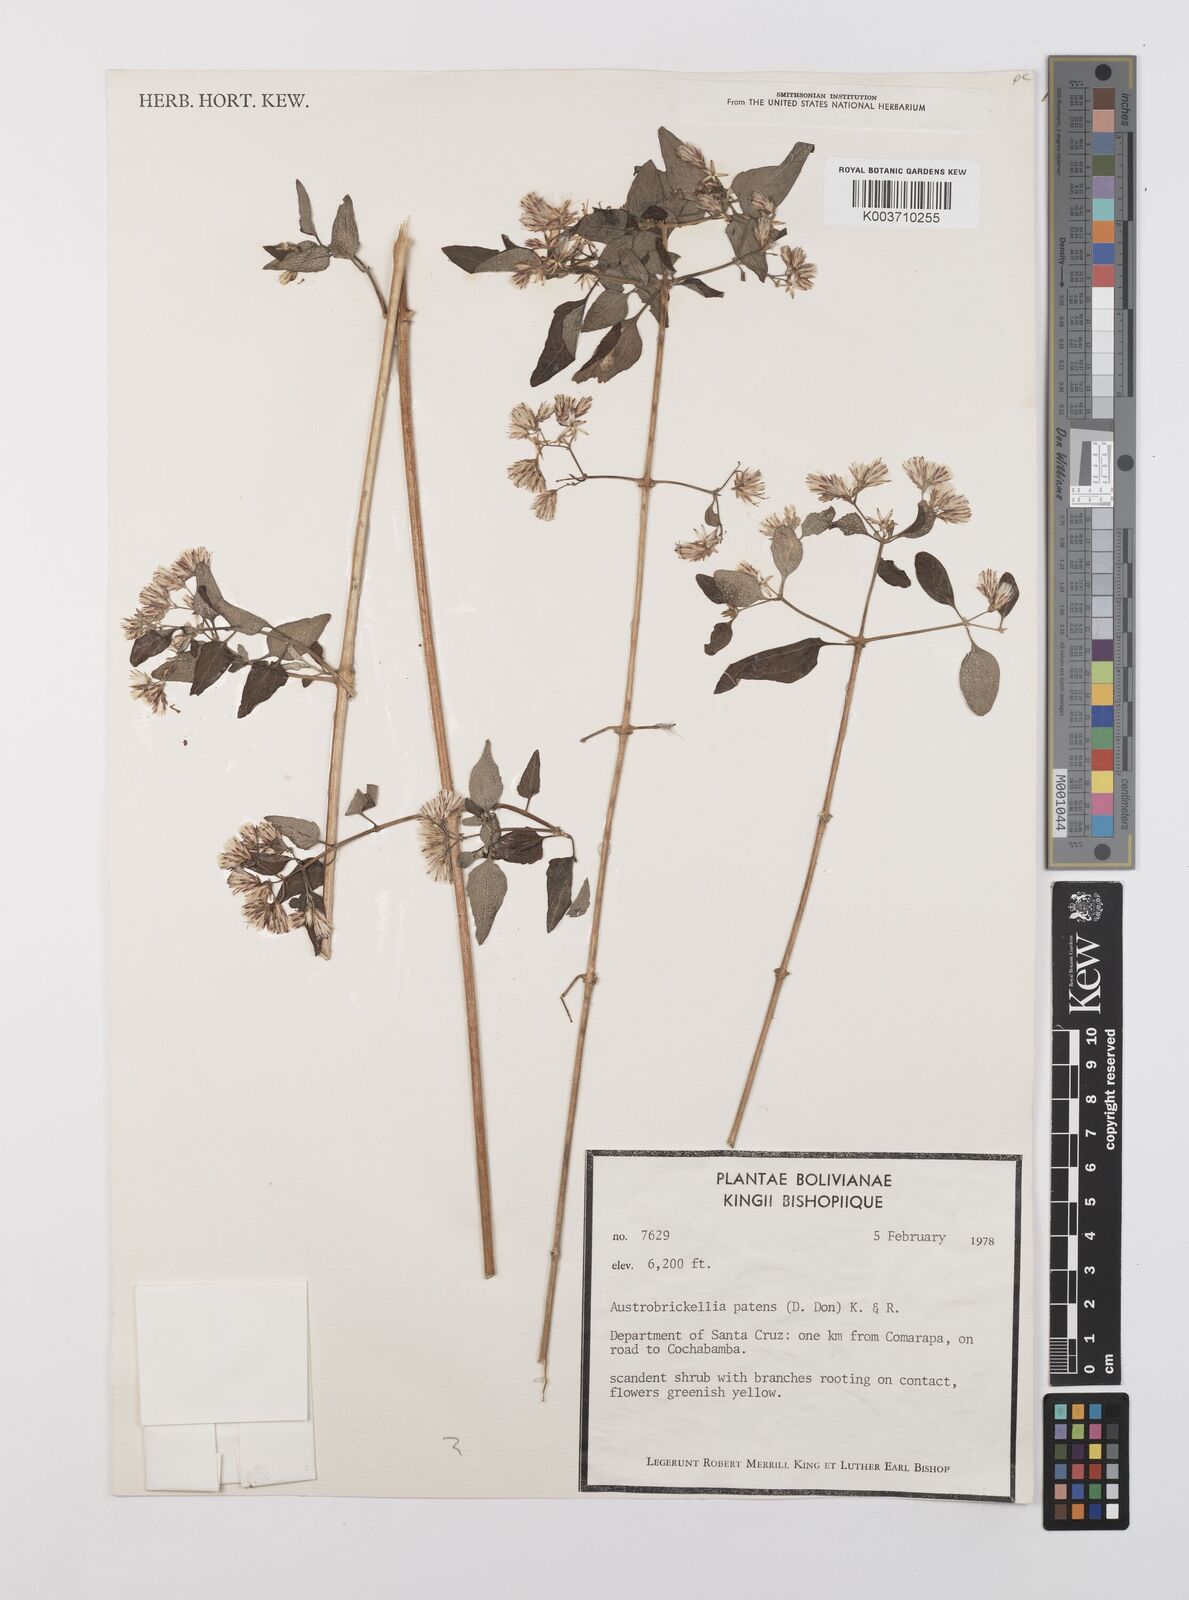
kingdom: Plantae
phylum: Tracheophyta
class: Magnoliopsida
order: Asterales
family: Asteraceae
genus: Austrobrickellia
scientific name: Austrobrickellia patens
